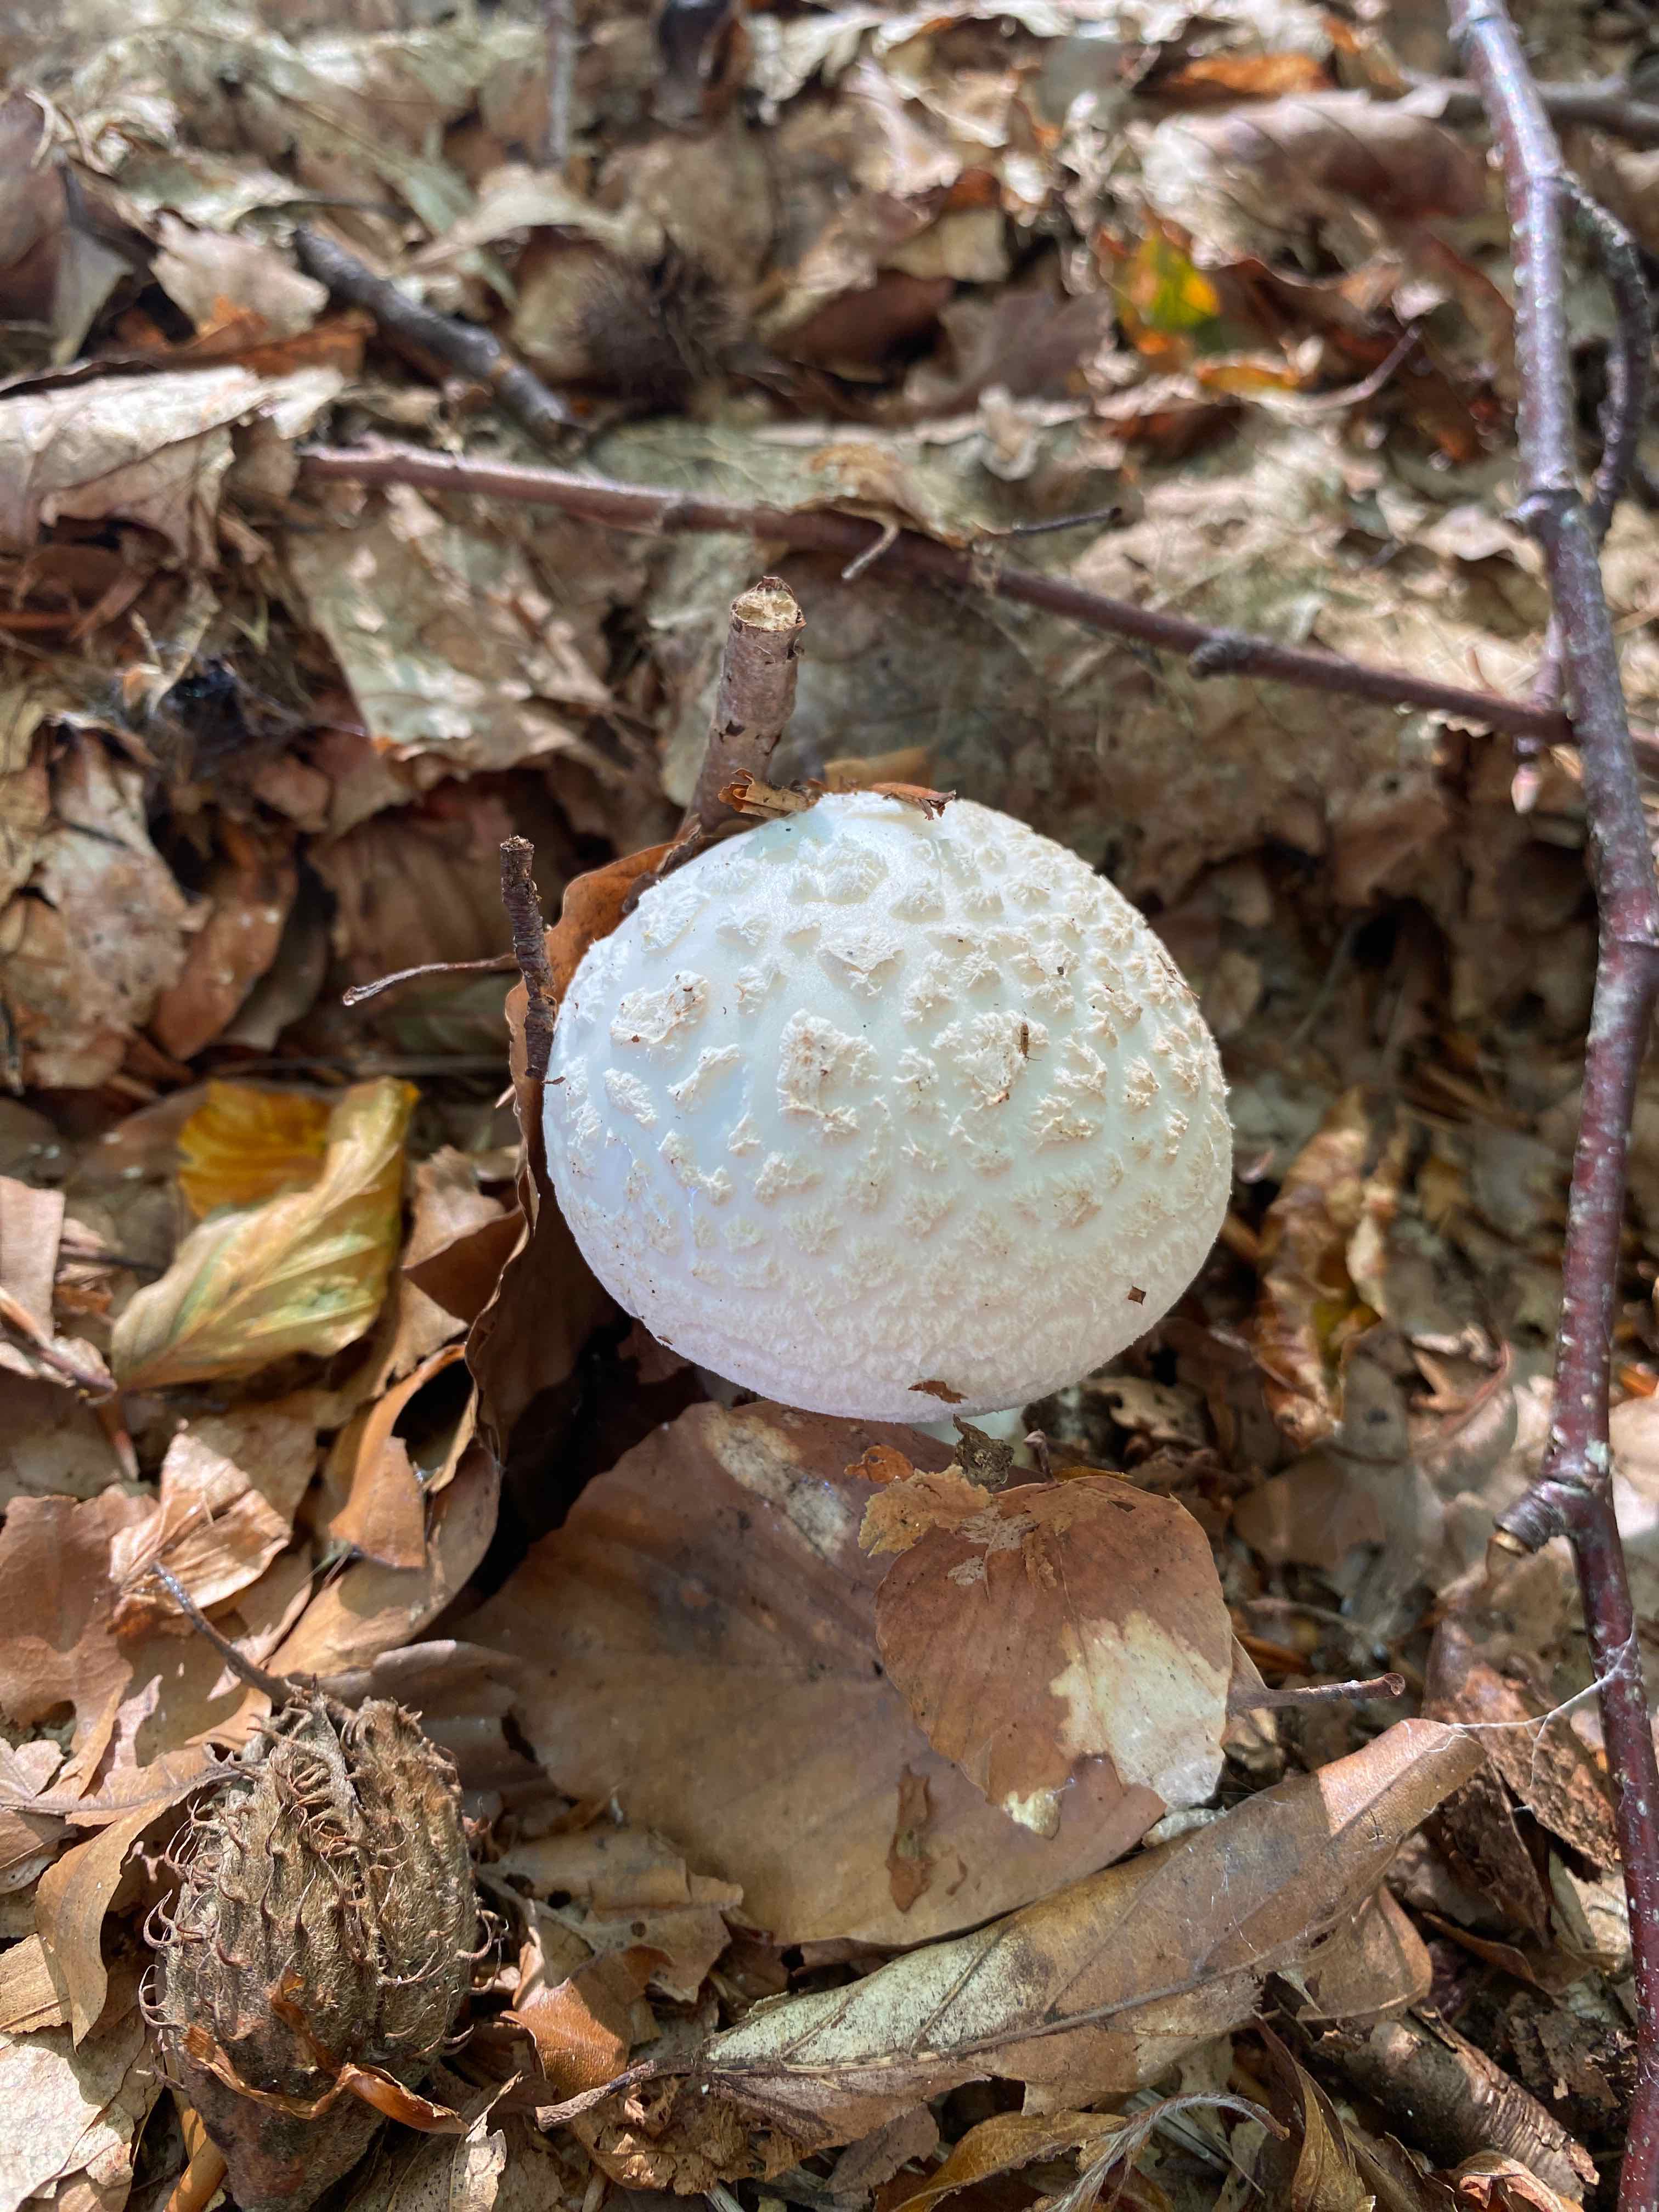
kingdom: Fungi
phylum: Basidiomycota
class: Agaricomycetes
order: Agaricales
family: Amanitaceae
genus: Amanita
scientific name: Amanita citrina
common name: False death-cap
